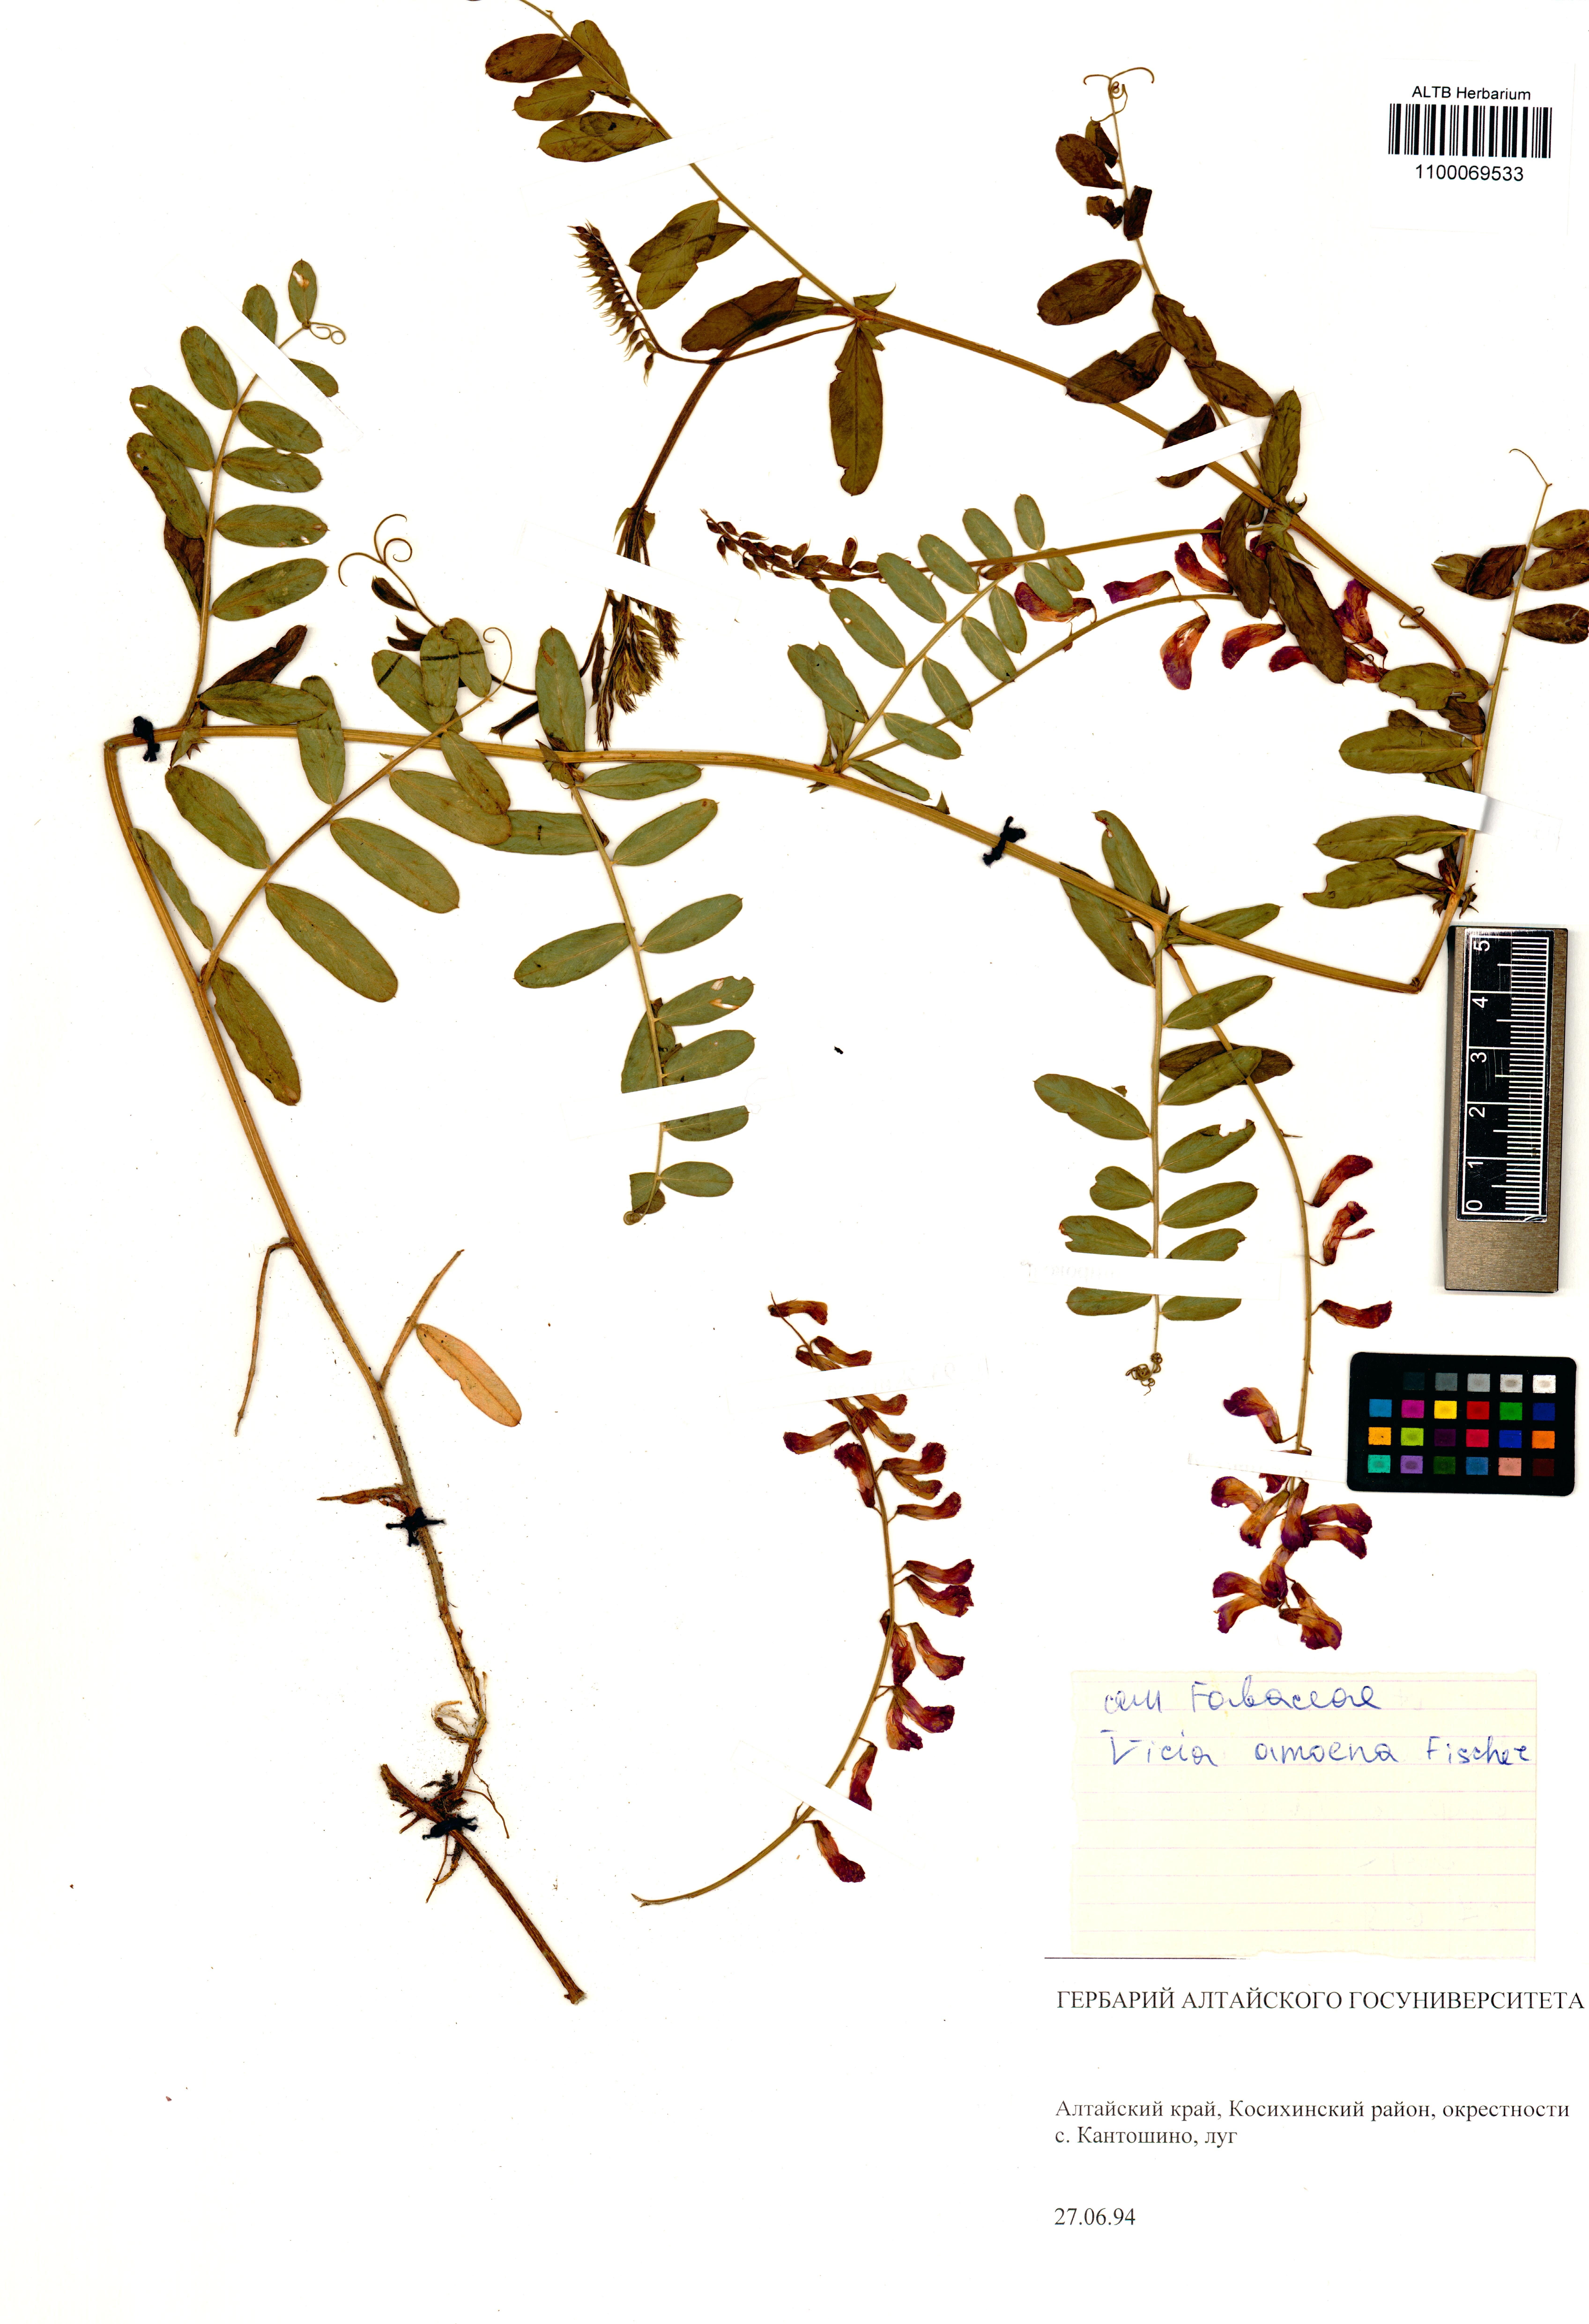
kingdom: Plantae
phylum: Tracheophyta
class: Magnoliopsida
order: Fabales
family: Fabaceae
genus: Vicia
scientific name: Vicia amoena
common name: Cheder ebs
